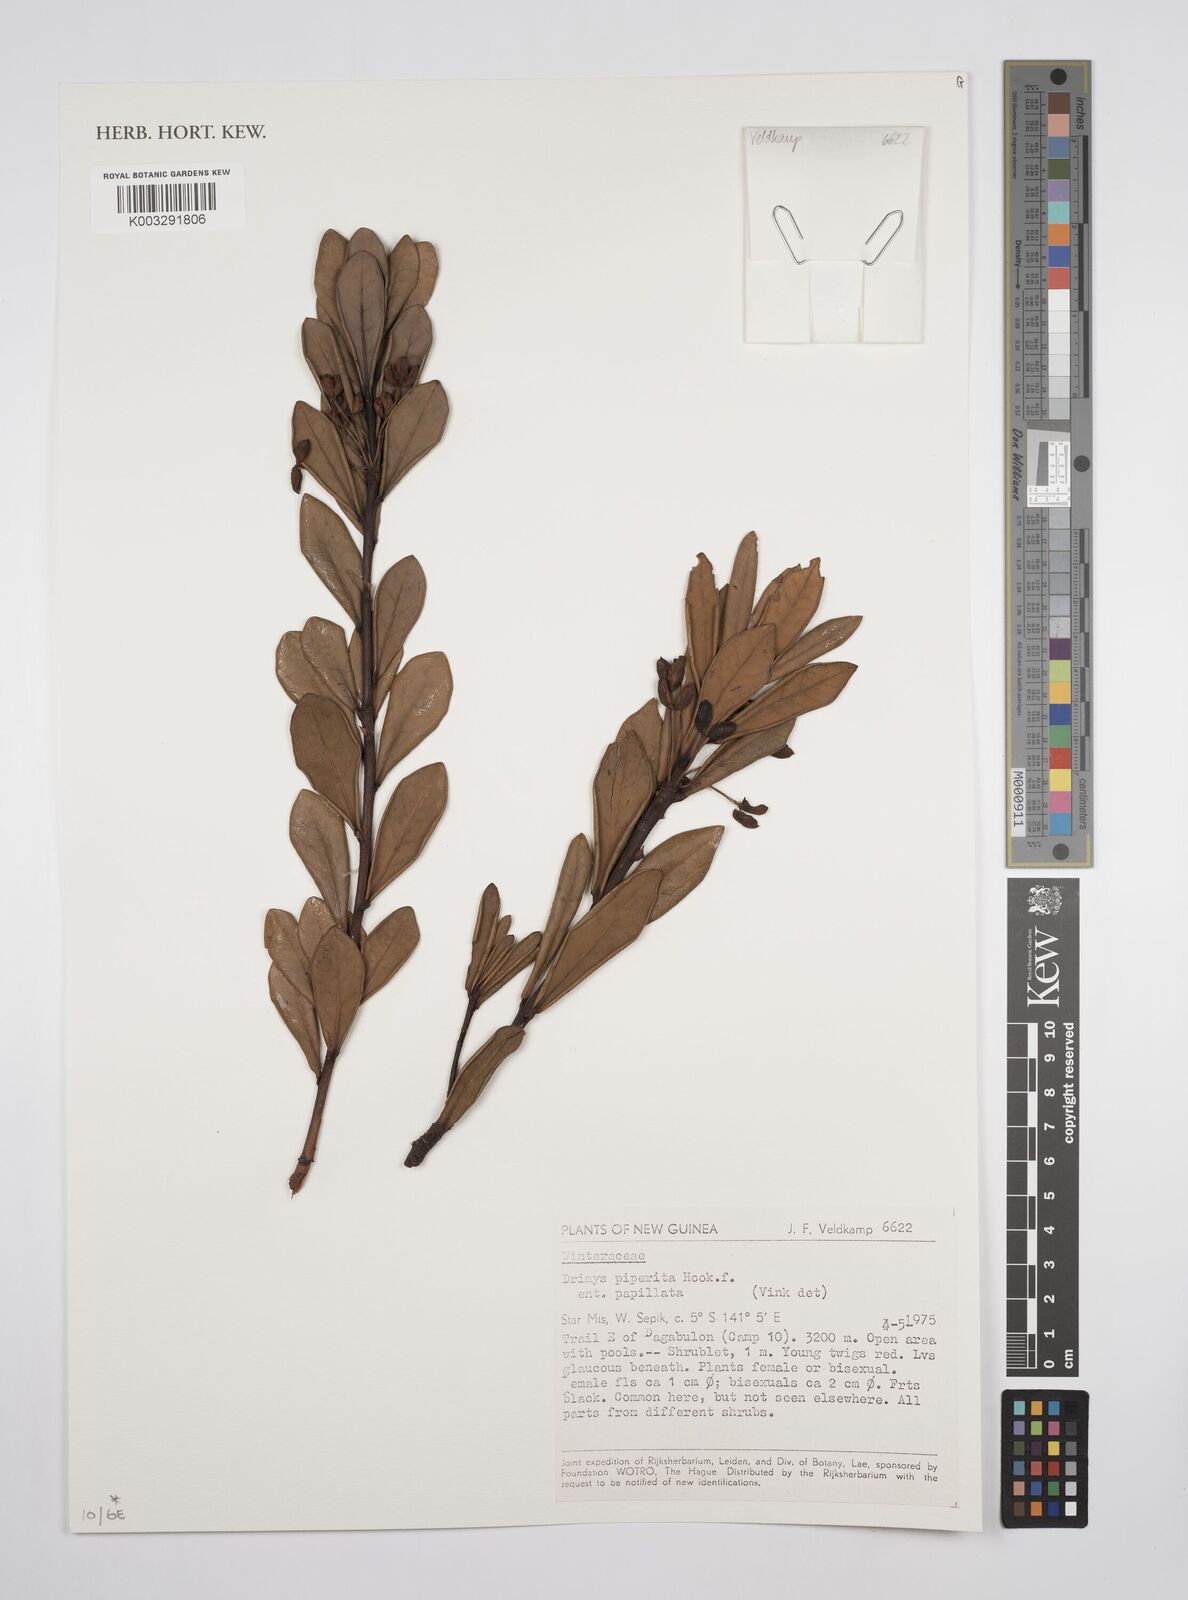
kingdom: Plantae
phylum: Tracheophyta
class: Magnoliopsida
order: Canellales
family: Winteraceae
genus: Drimys
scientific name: Drimys piperita
